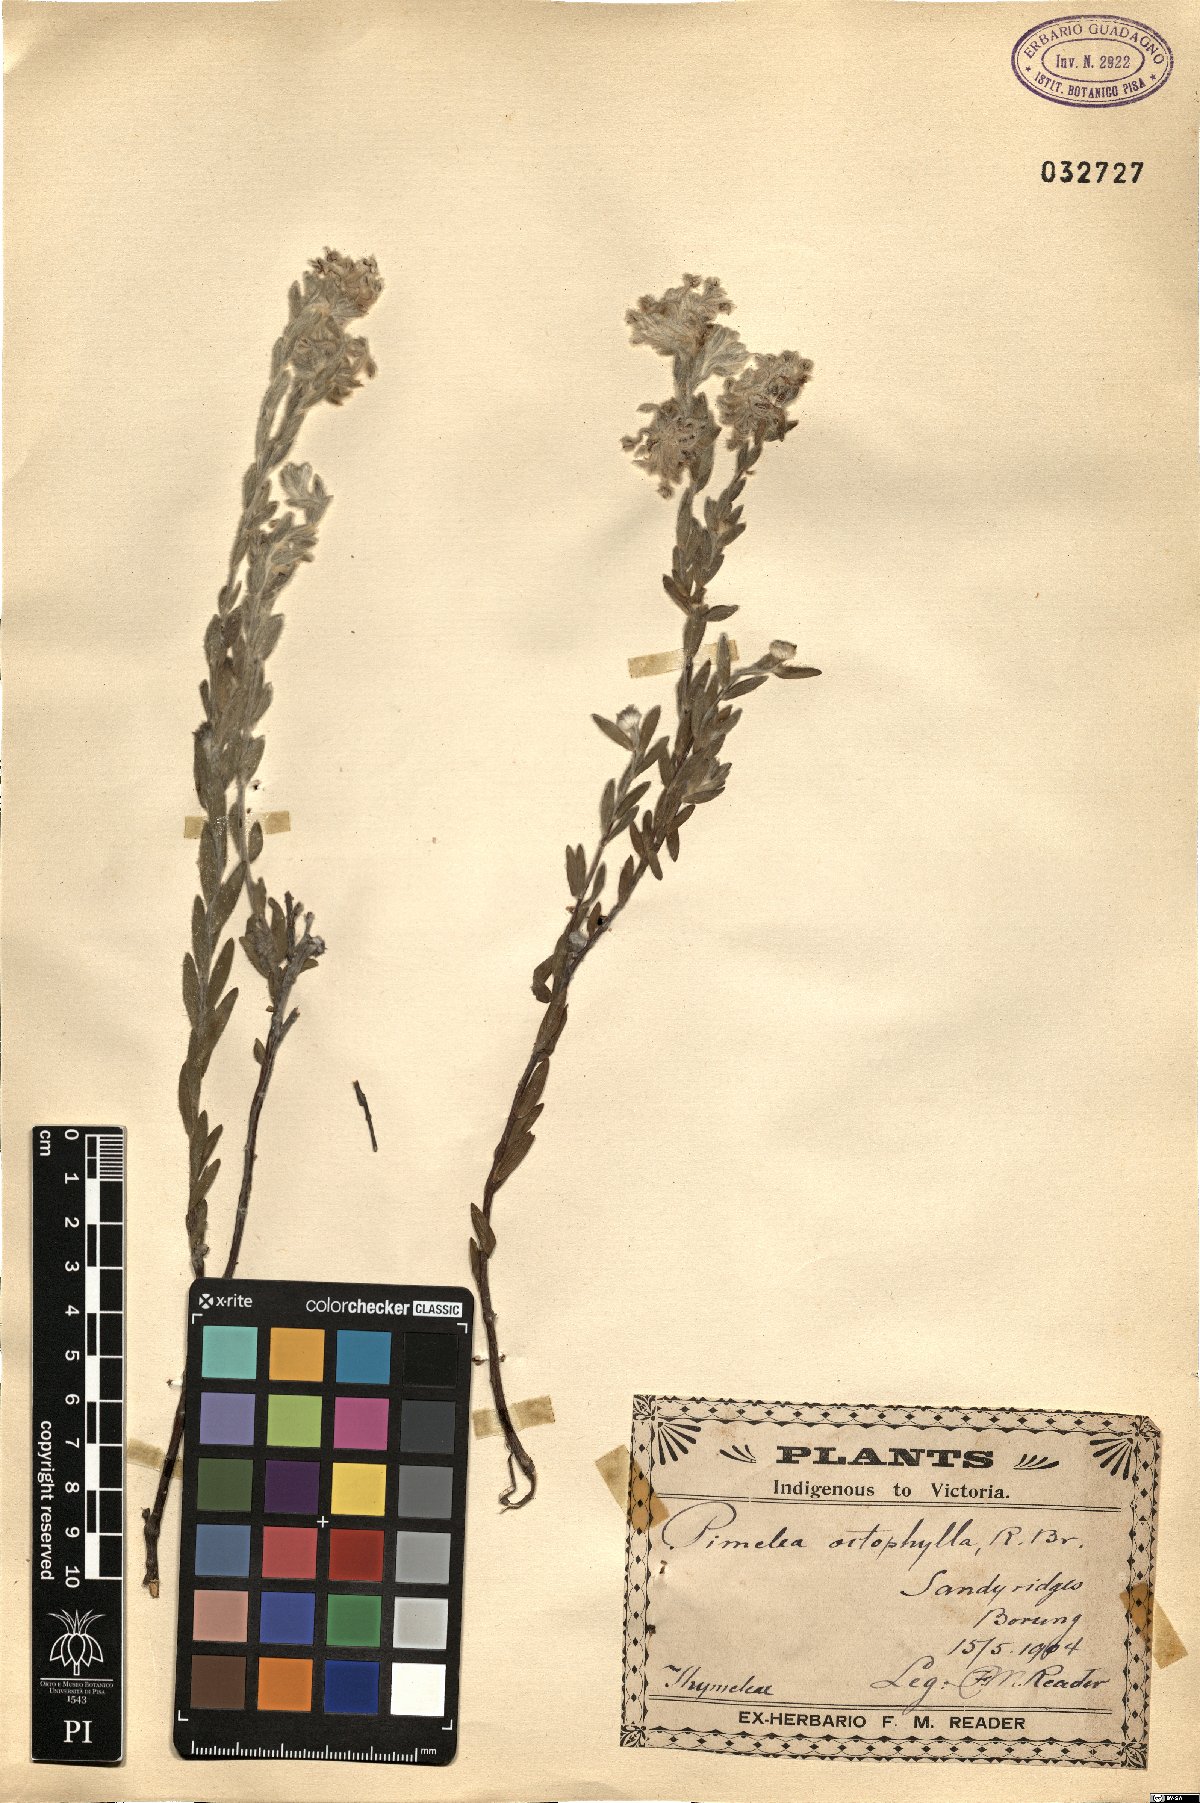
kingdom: Plantae
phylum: Tracheophyta
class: Magnoliopsida
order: Malvales
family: Thymelaeaceae
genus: Pimelea
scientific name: Pimelea octophylla
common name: Woolly riceflower
